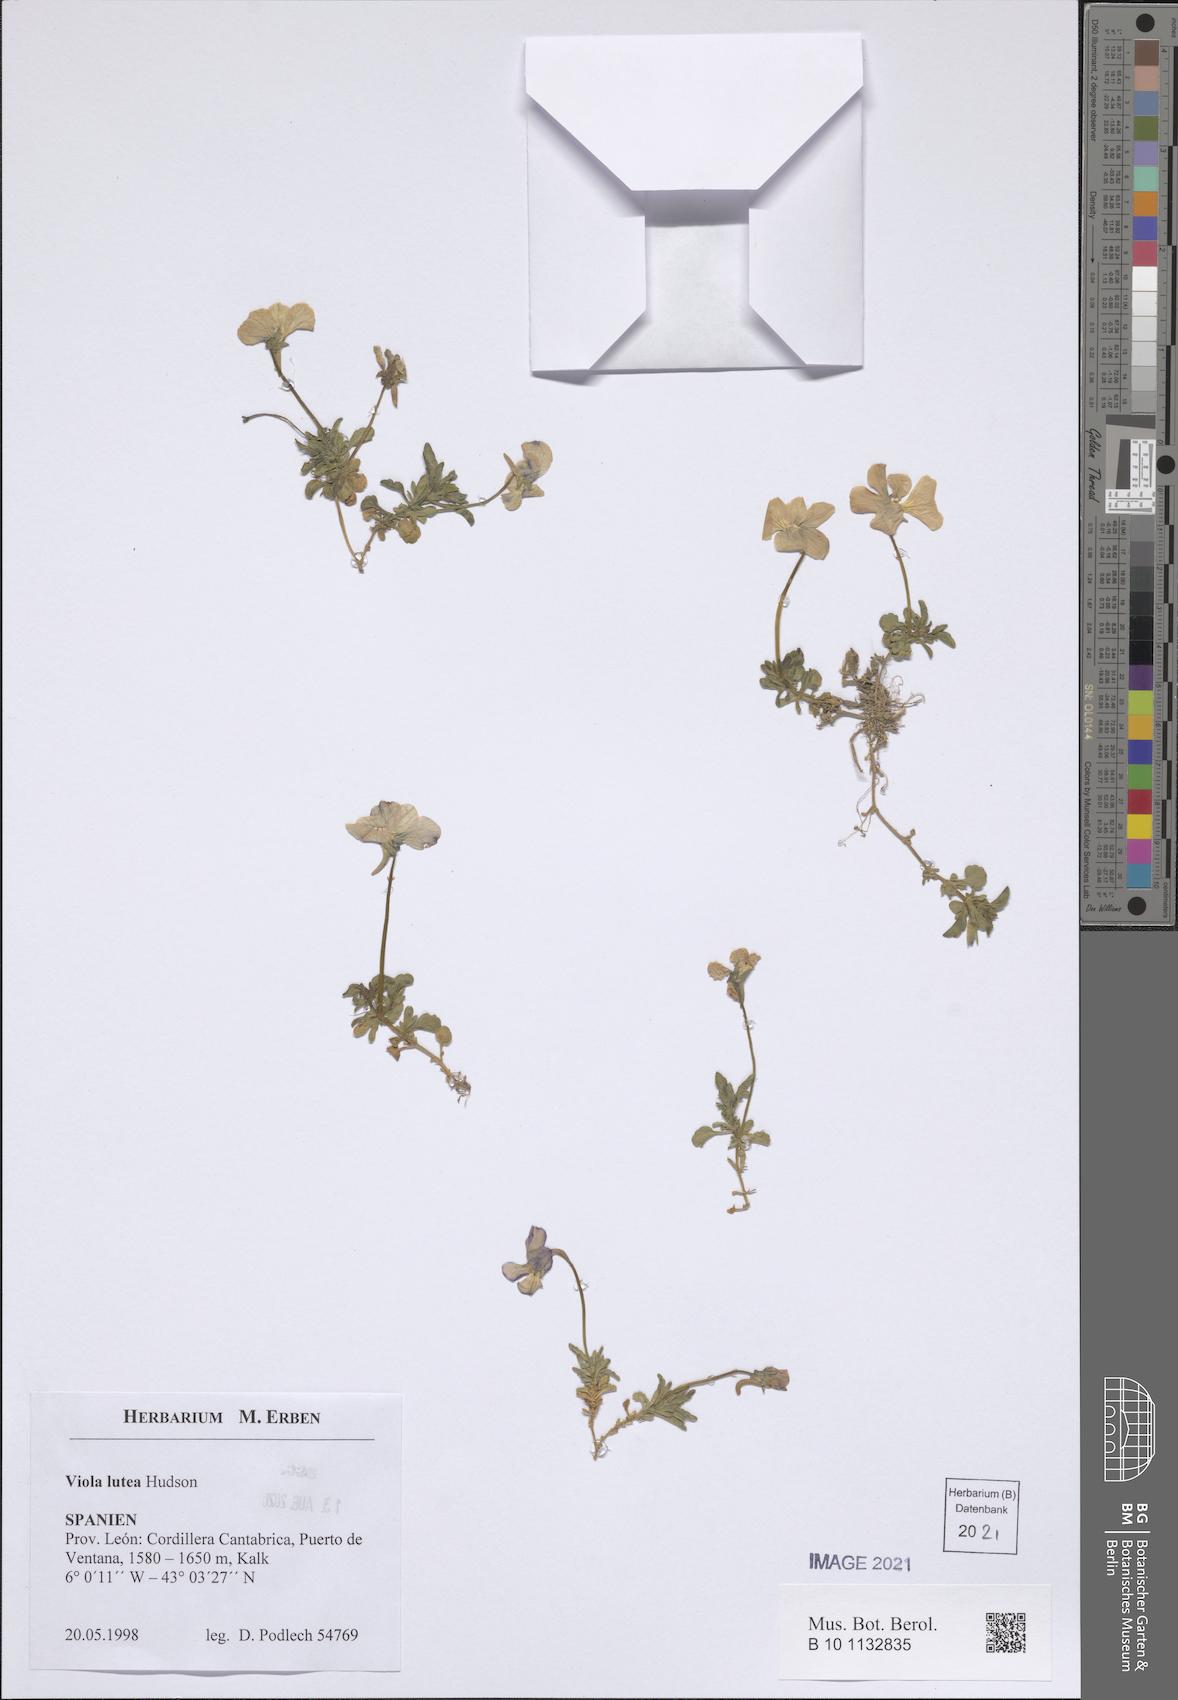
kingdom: Plantae
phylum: Tracheophyta
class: Magnoliopsida
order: Malpighiales
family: Violaceae
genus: Viola
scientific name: Viola lutea
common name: Mountain pansy
